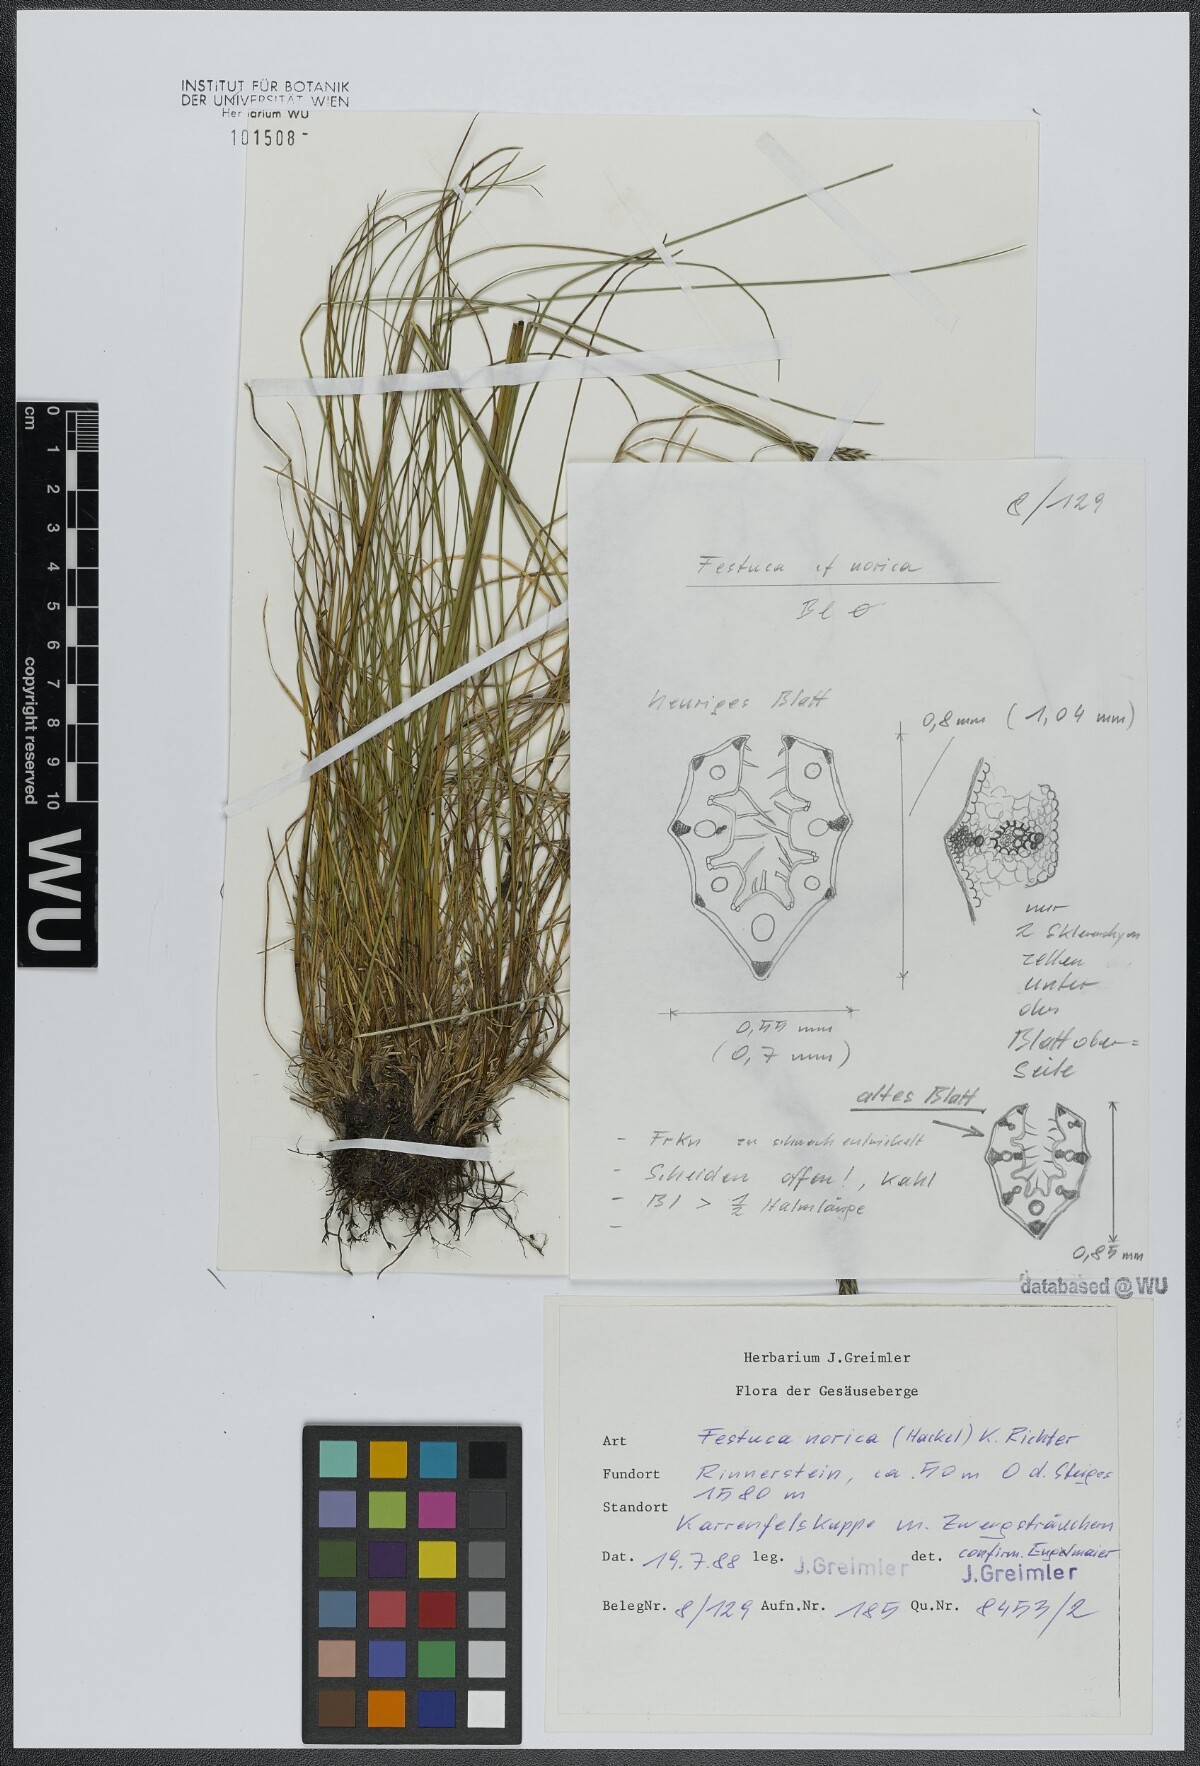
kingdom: Plantae
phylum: Tracheophyta
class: Liliopsida
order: Poales
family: Poaceae
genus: Festuca
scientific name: Festuca norica
